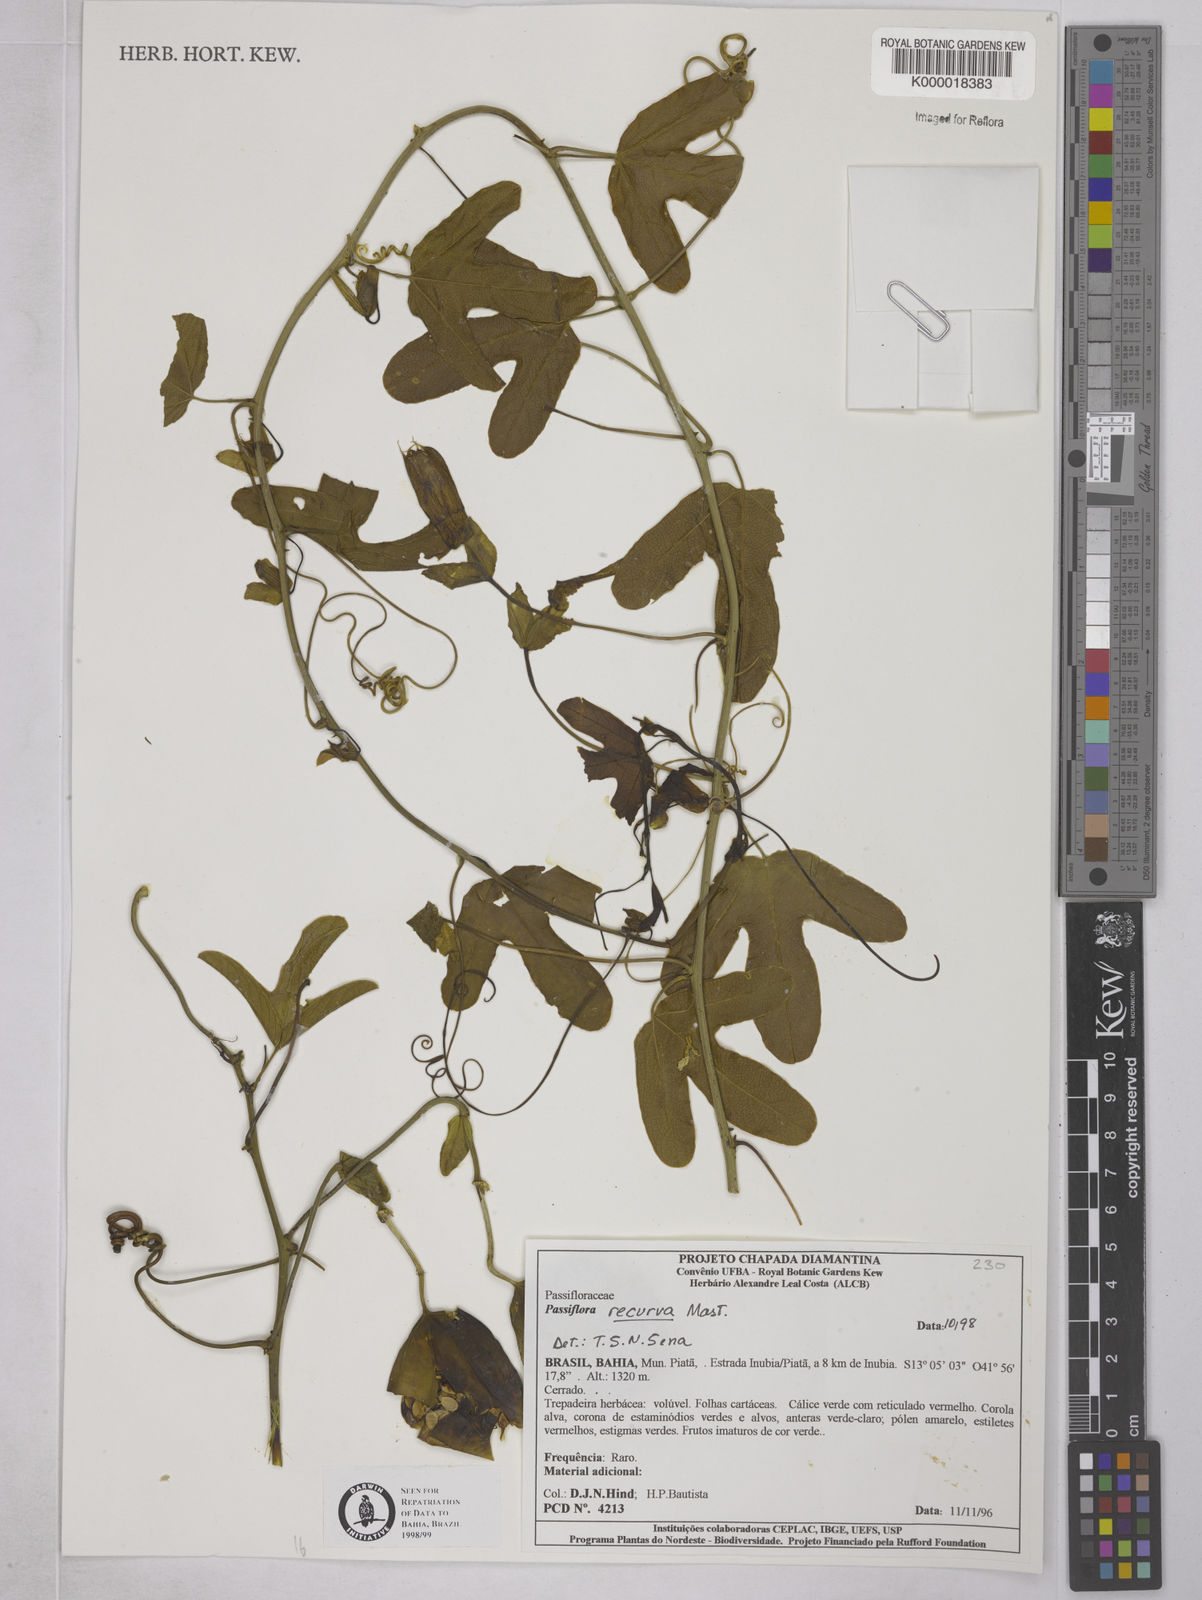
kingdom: Plantae
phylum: Tracheophyta
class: Magnoliopsida
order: Malpighiales
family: Passifloraceae
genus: Passiflora
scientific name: Passiflora recurva
